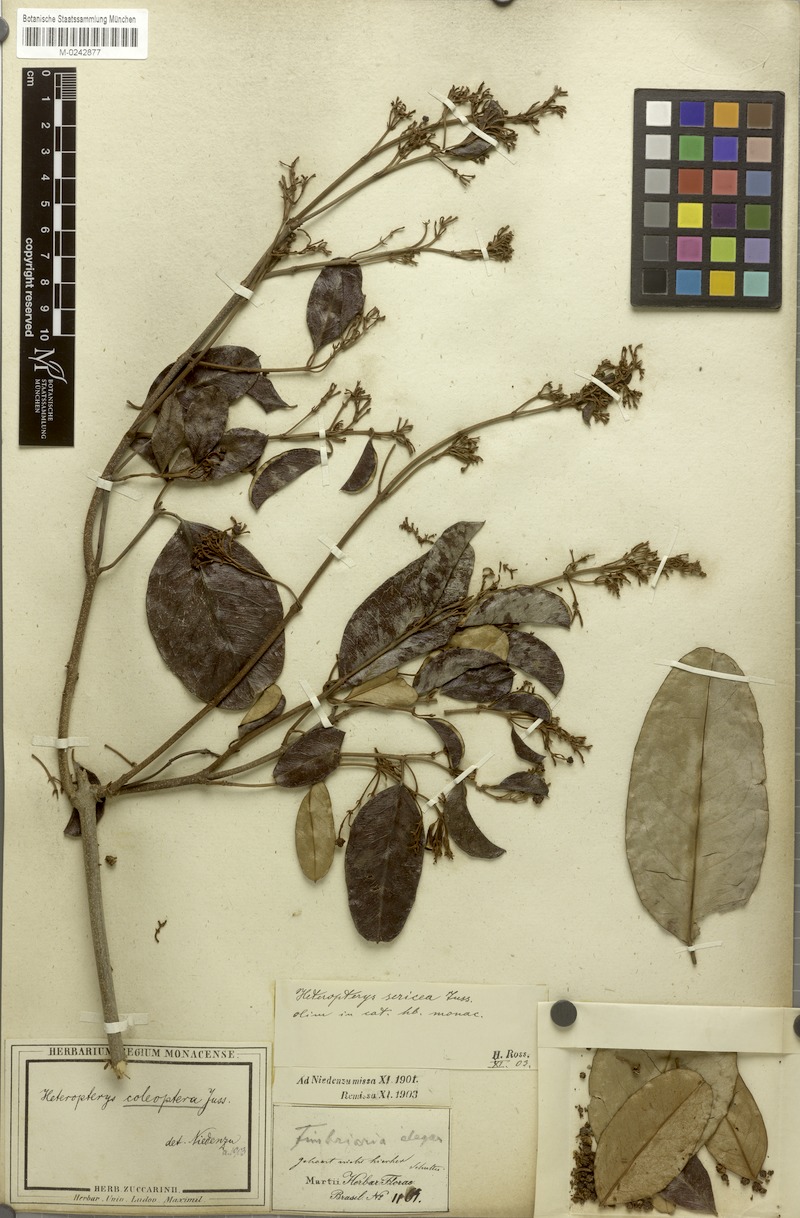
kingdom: Plantae
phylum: Tracheophyta
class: Magnoliopsida
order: Malpighiales
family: Malpighiaceae
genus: Heteropterys
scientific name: Heteropterys coleoptera
